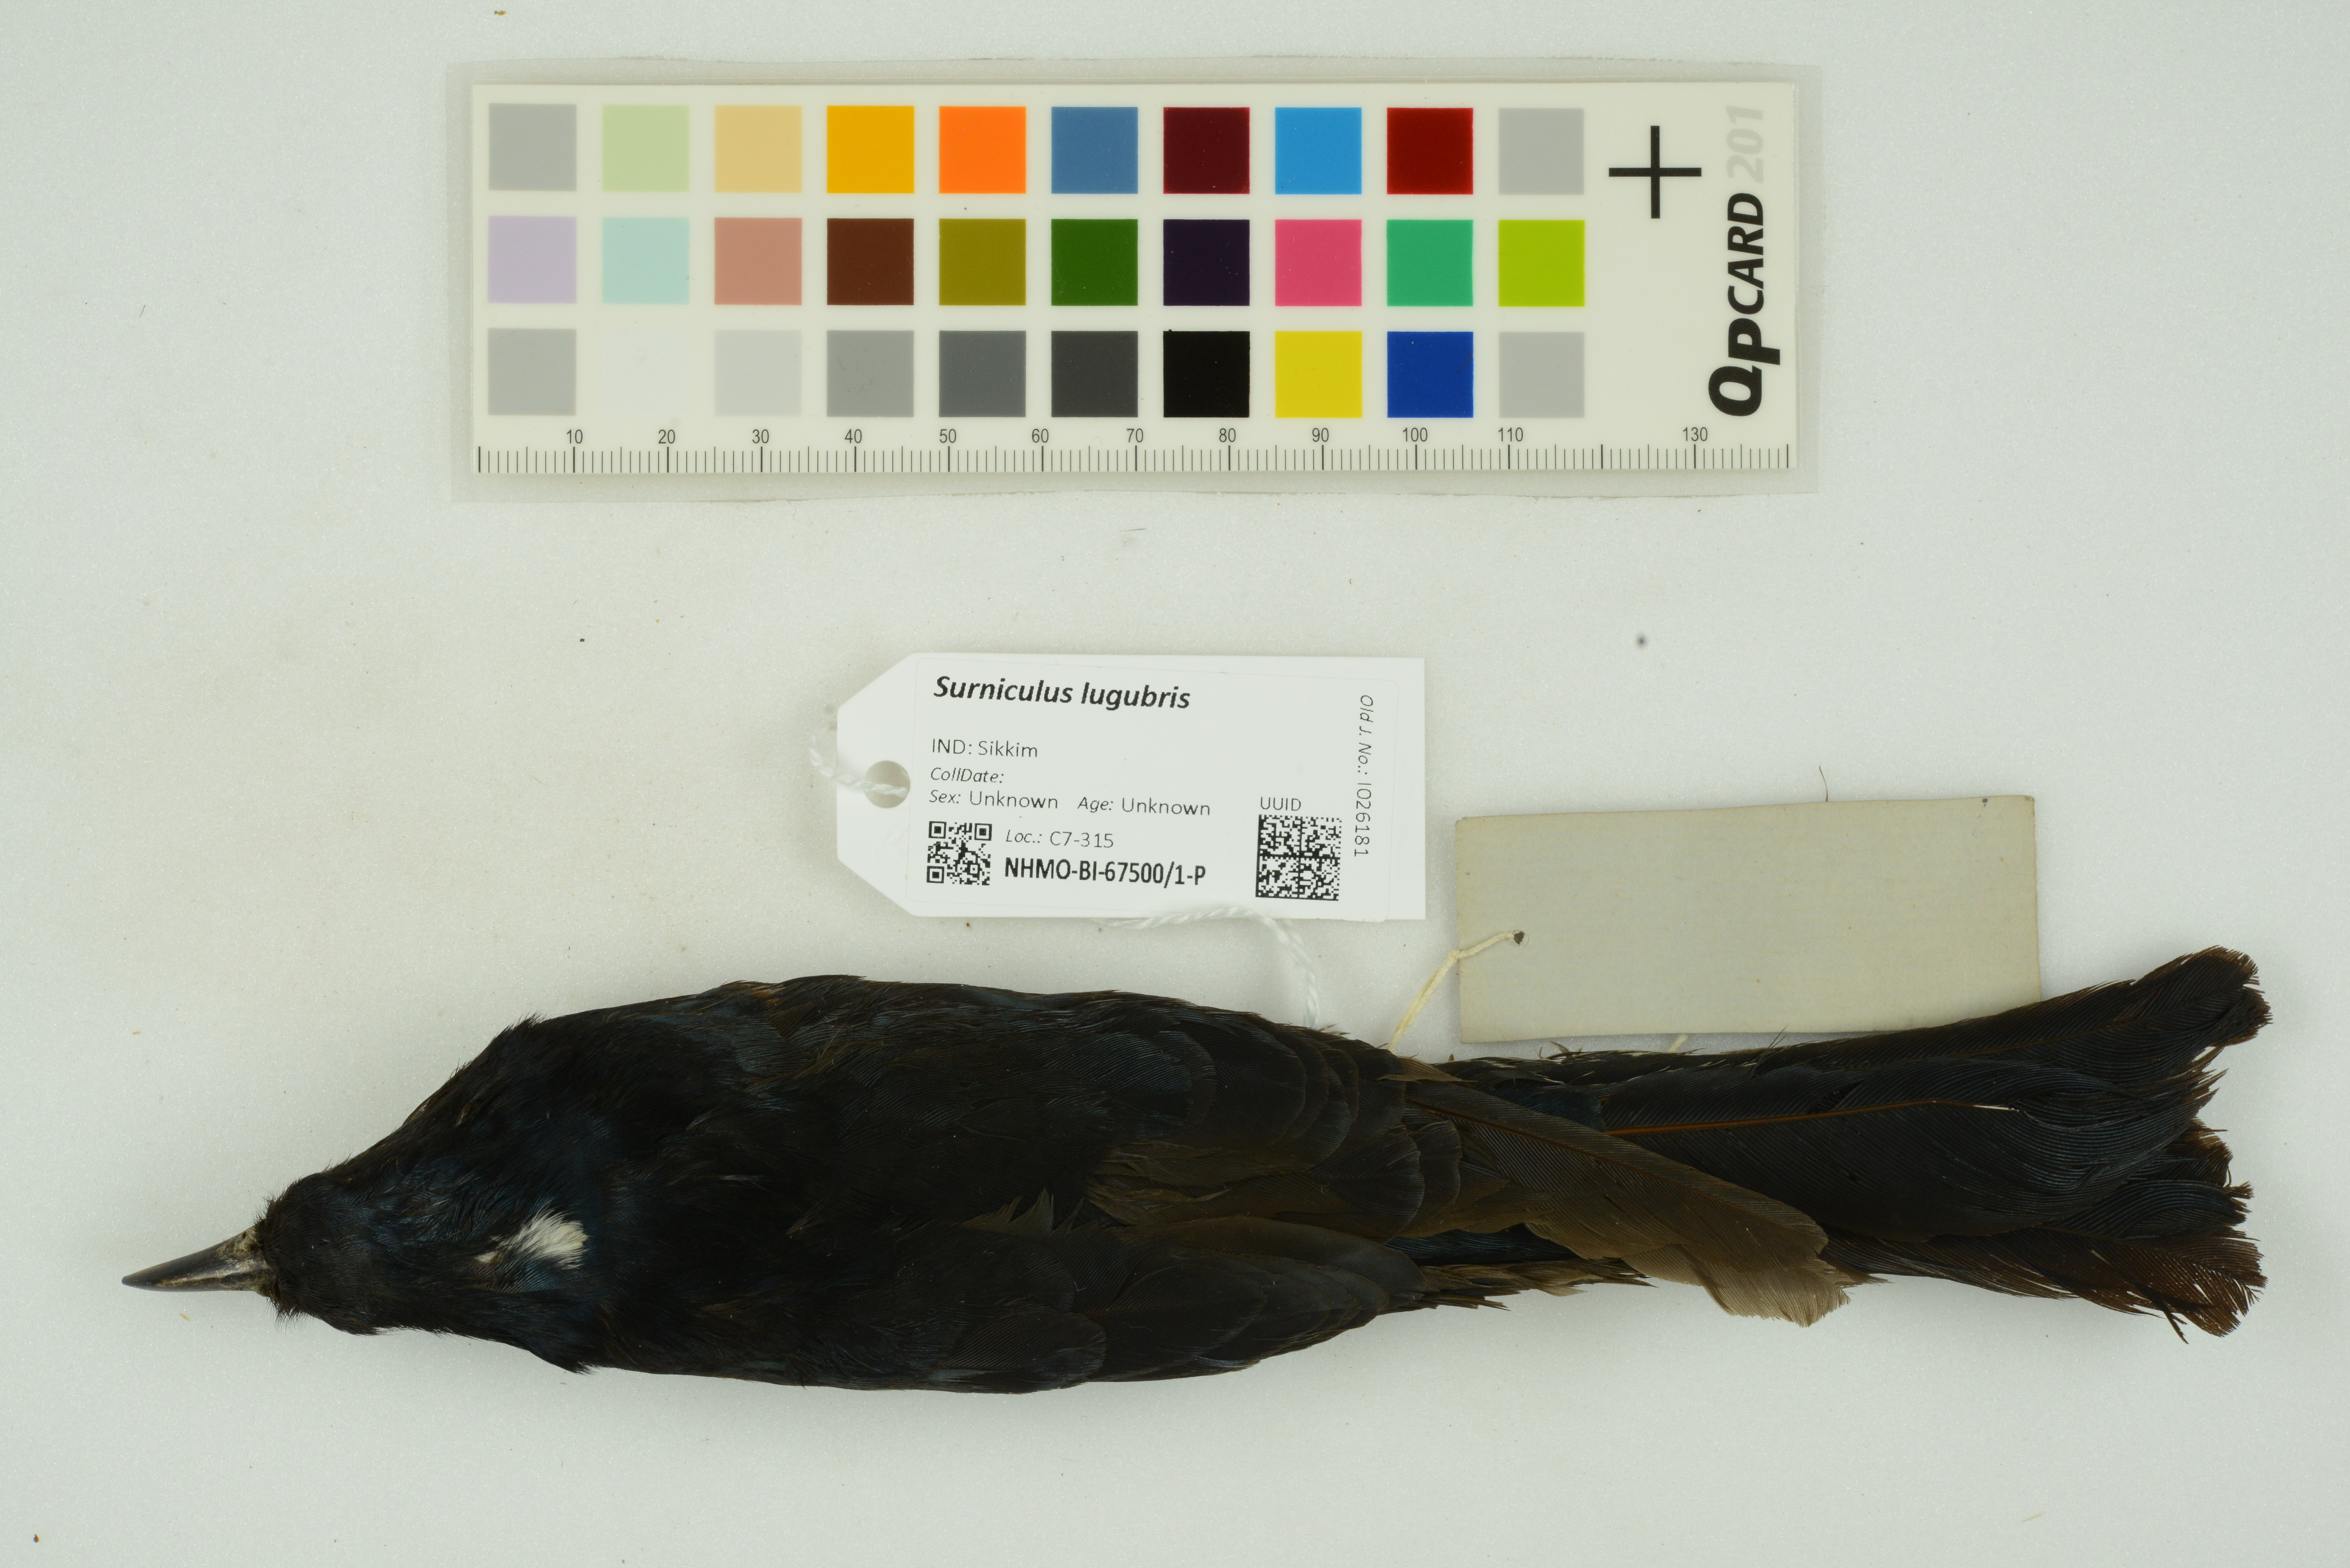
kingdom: Animalia
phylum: Chordata
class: Aves
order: Cuculiformes
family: Cuculidae
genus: Surniculus
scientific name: Surniculus lugubris
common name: Square-tailed drongo-cuckoo
